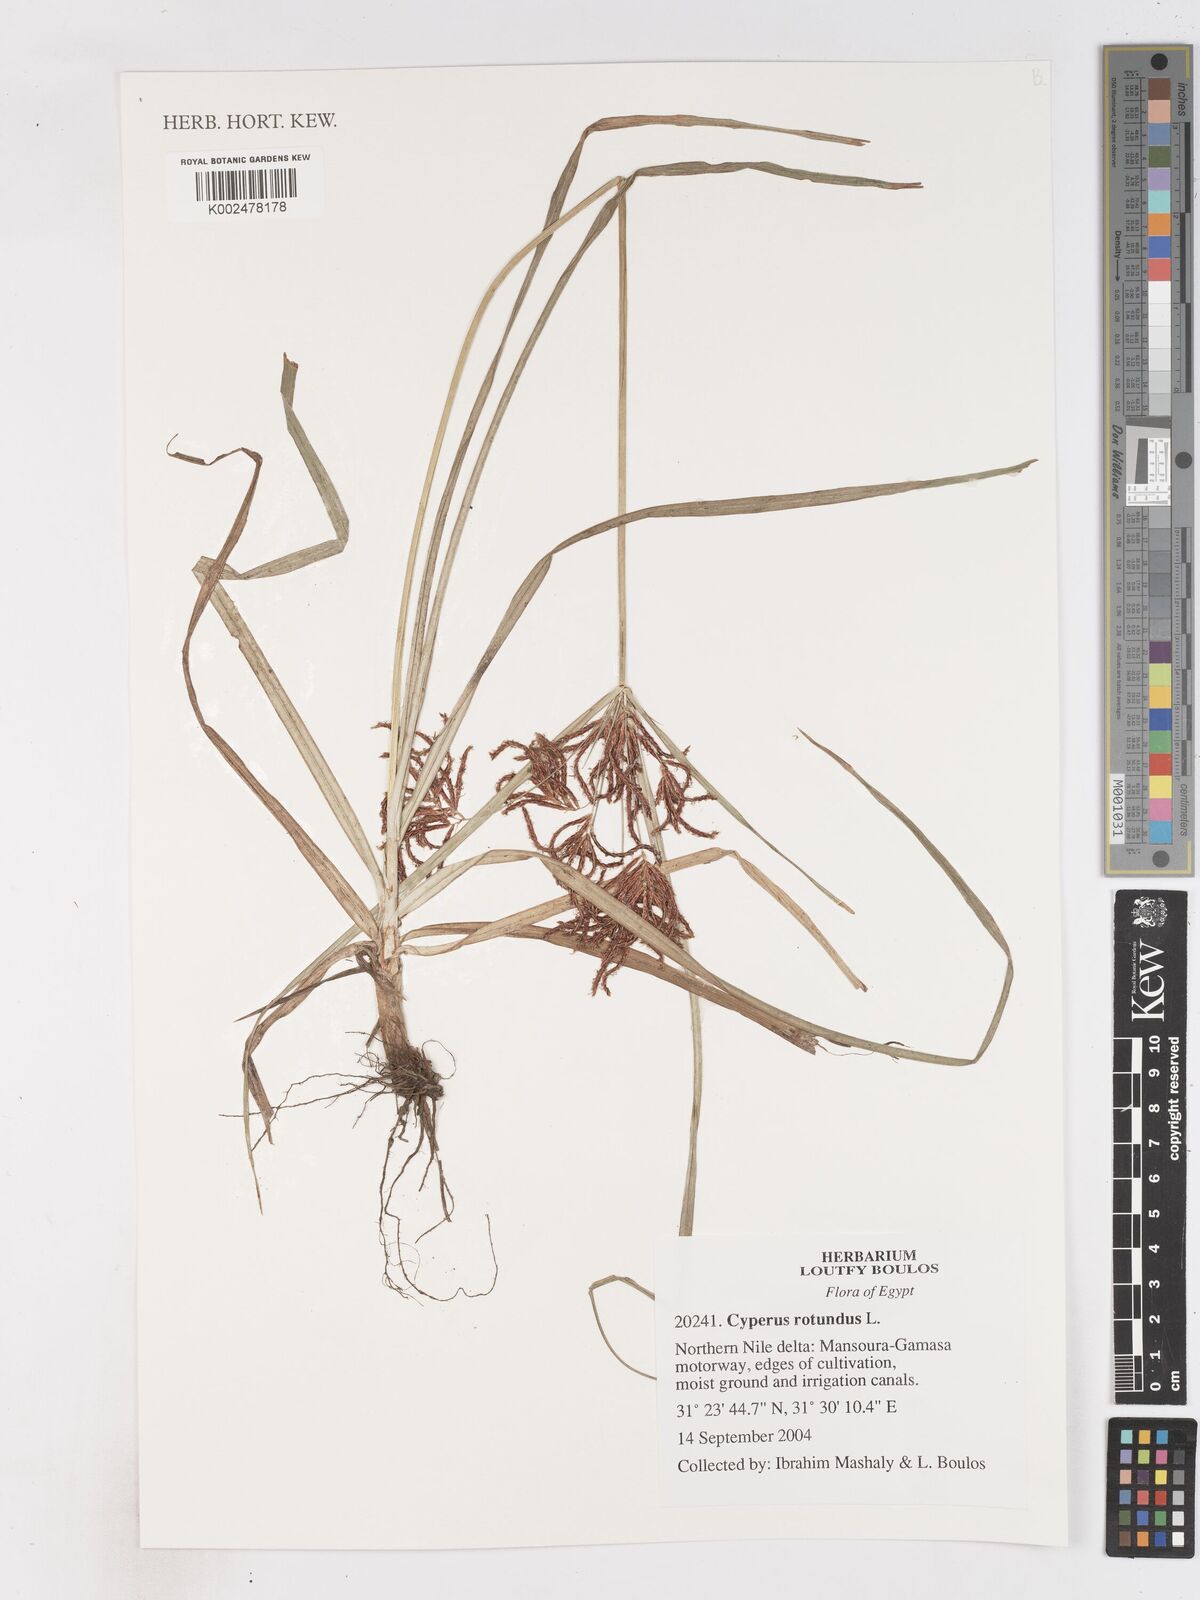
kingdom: Plantae
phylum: Tracheophyta
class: Liliopsida
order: Poales
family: Cyperaceae
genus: Cyperus
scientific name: Cyperus rotundus
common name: Nutgrass
